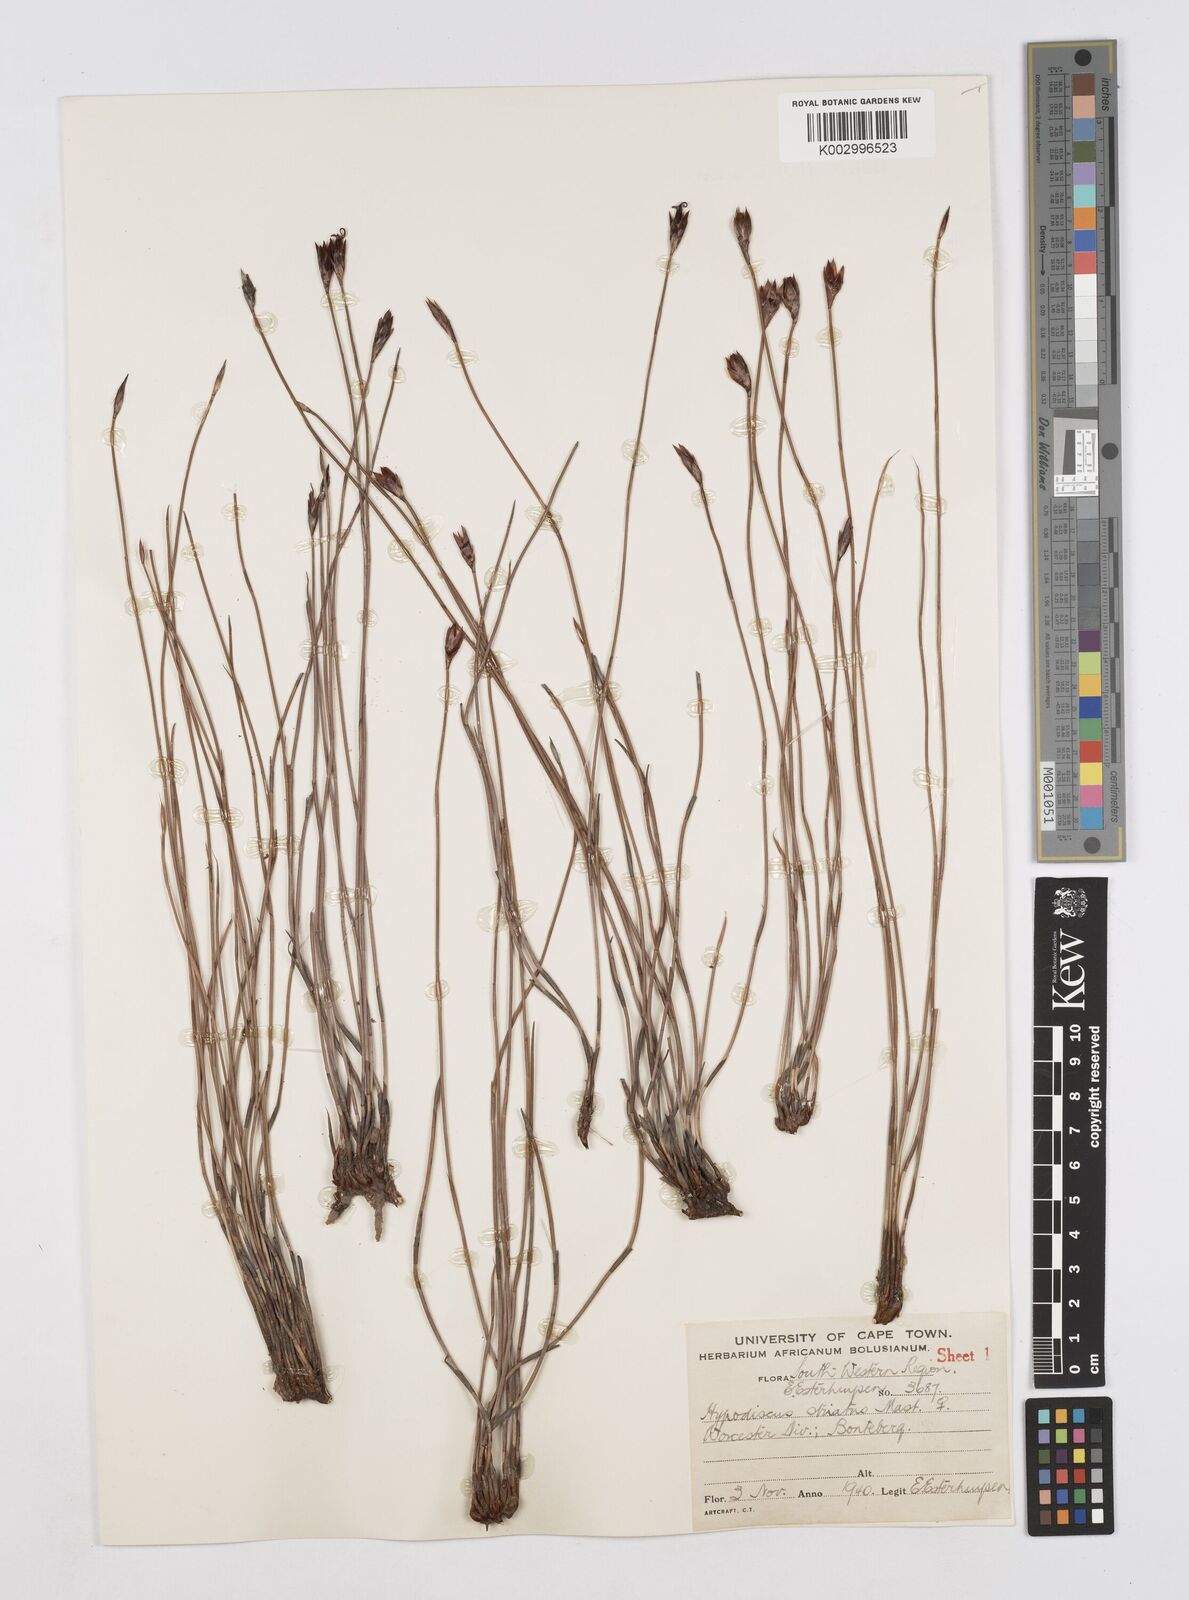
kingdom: Plantae
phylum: Tracheophyta
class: Liliopsida
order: Poales
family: Restionaceae
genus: Hypodiscus
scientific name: Hypodiscus striatus
